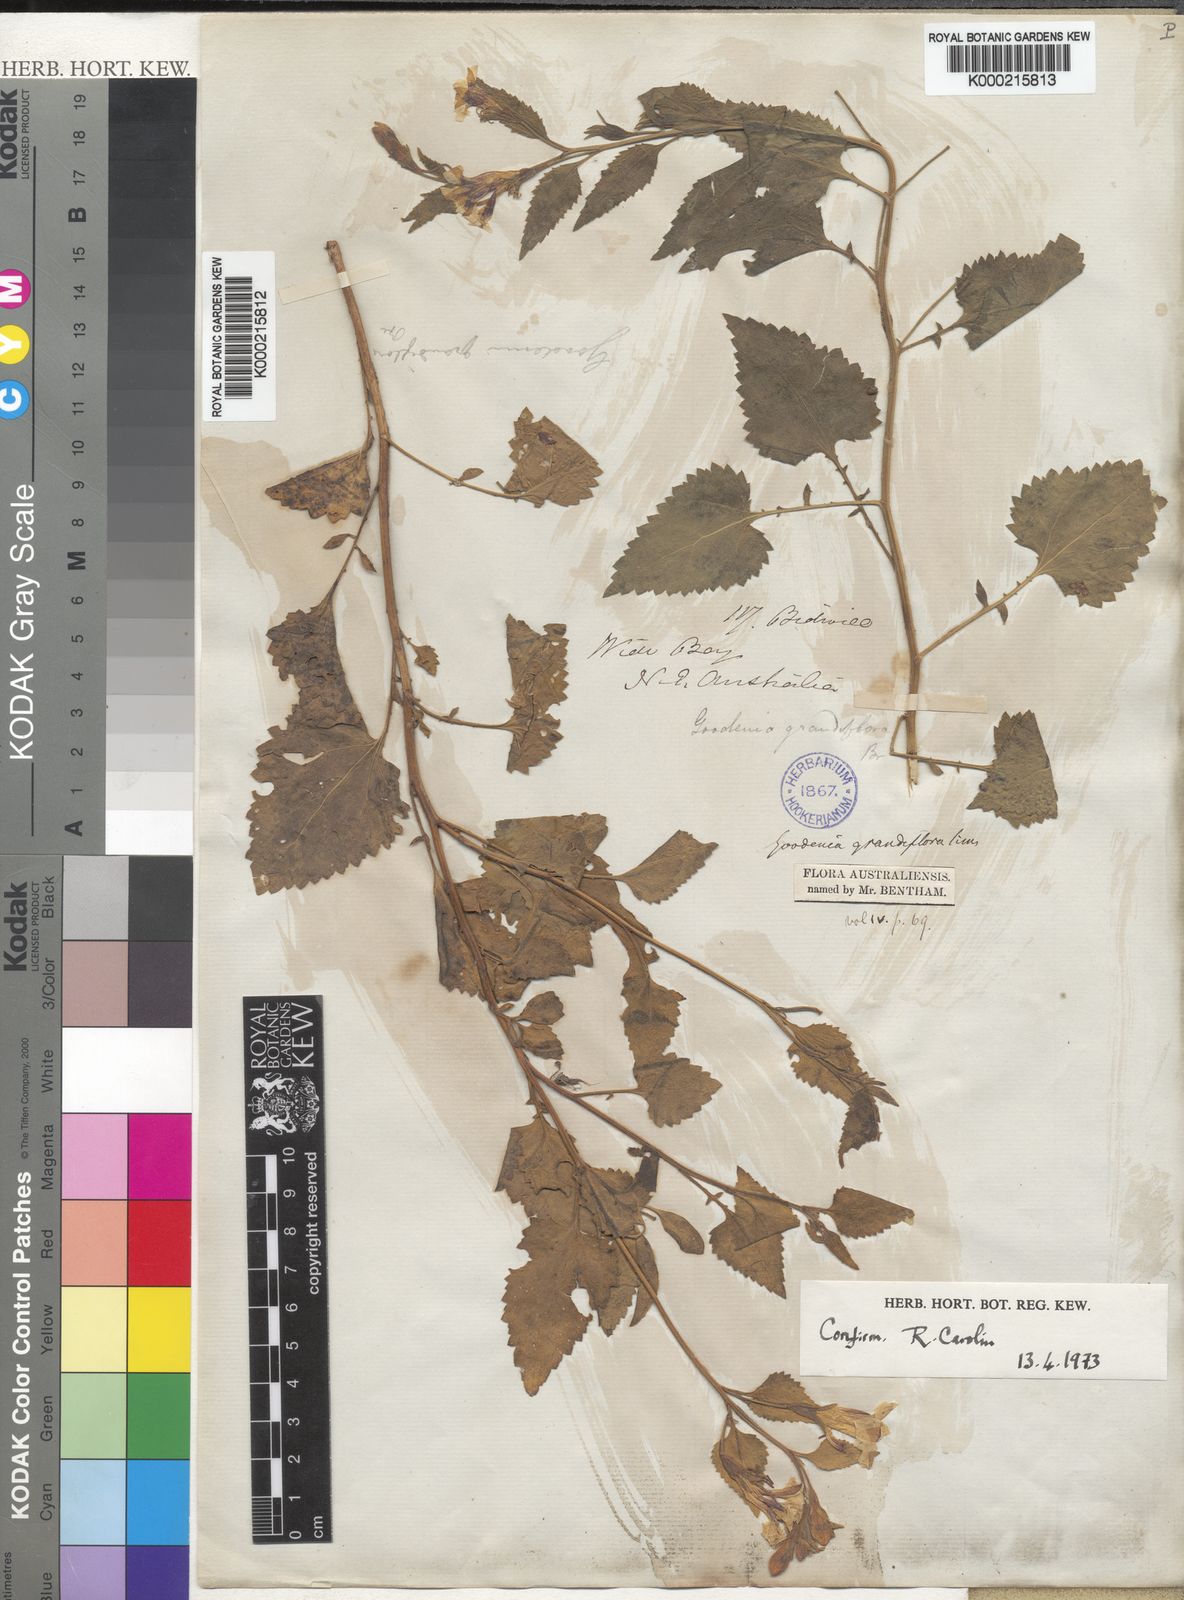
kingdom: Plantae
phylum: Tracheophyta
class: Magnoliopsida
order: Asterales
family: Goodeniaceae
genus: Goodenia
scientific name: Goodenia grandiflora
